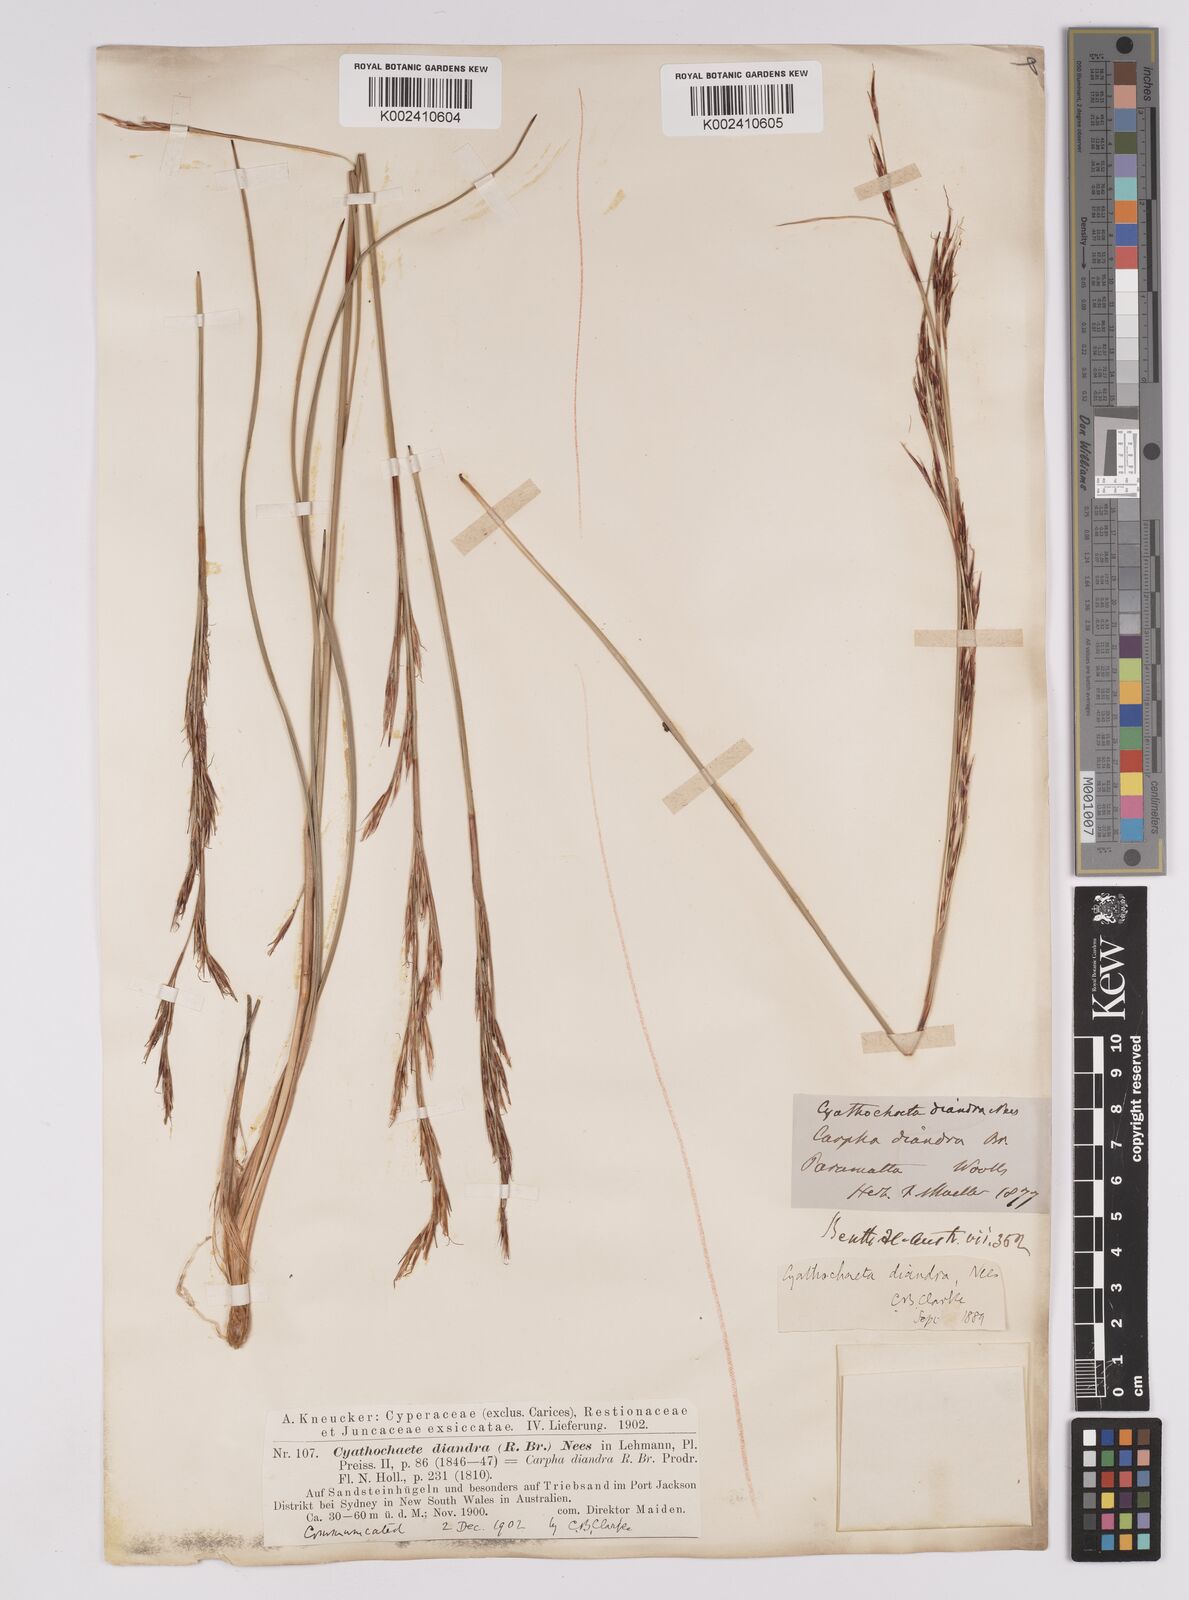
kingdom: Plantae
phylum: Tracheophyta
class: Liliopsida
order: Poales
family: Cyperaceae
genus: Cyathochaeta
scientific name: Cyathochaeta diandra
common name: Sheath rush
